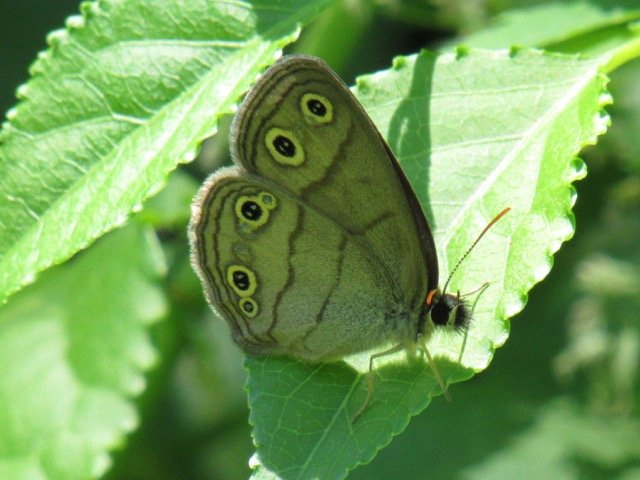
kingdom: Animalia
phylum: Arthropoda
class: Insecta
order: Lepidoptera
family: Nymphalidae
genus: Euptychia
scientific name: Euptychia cymela
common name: Little Wood Satyr
